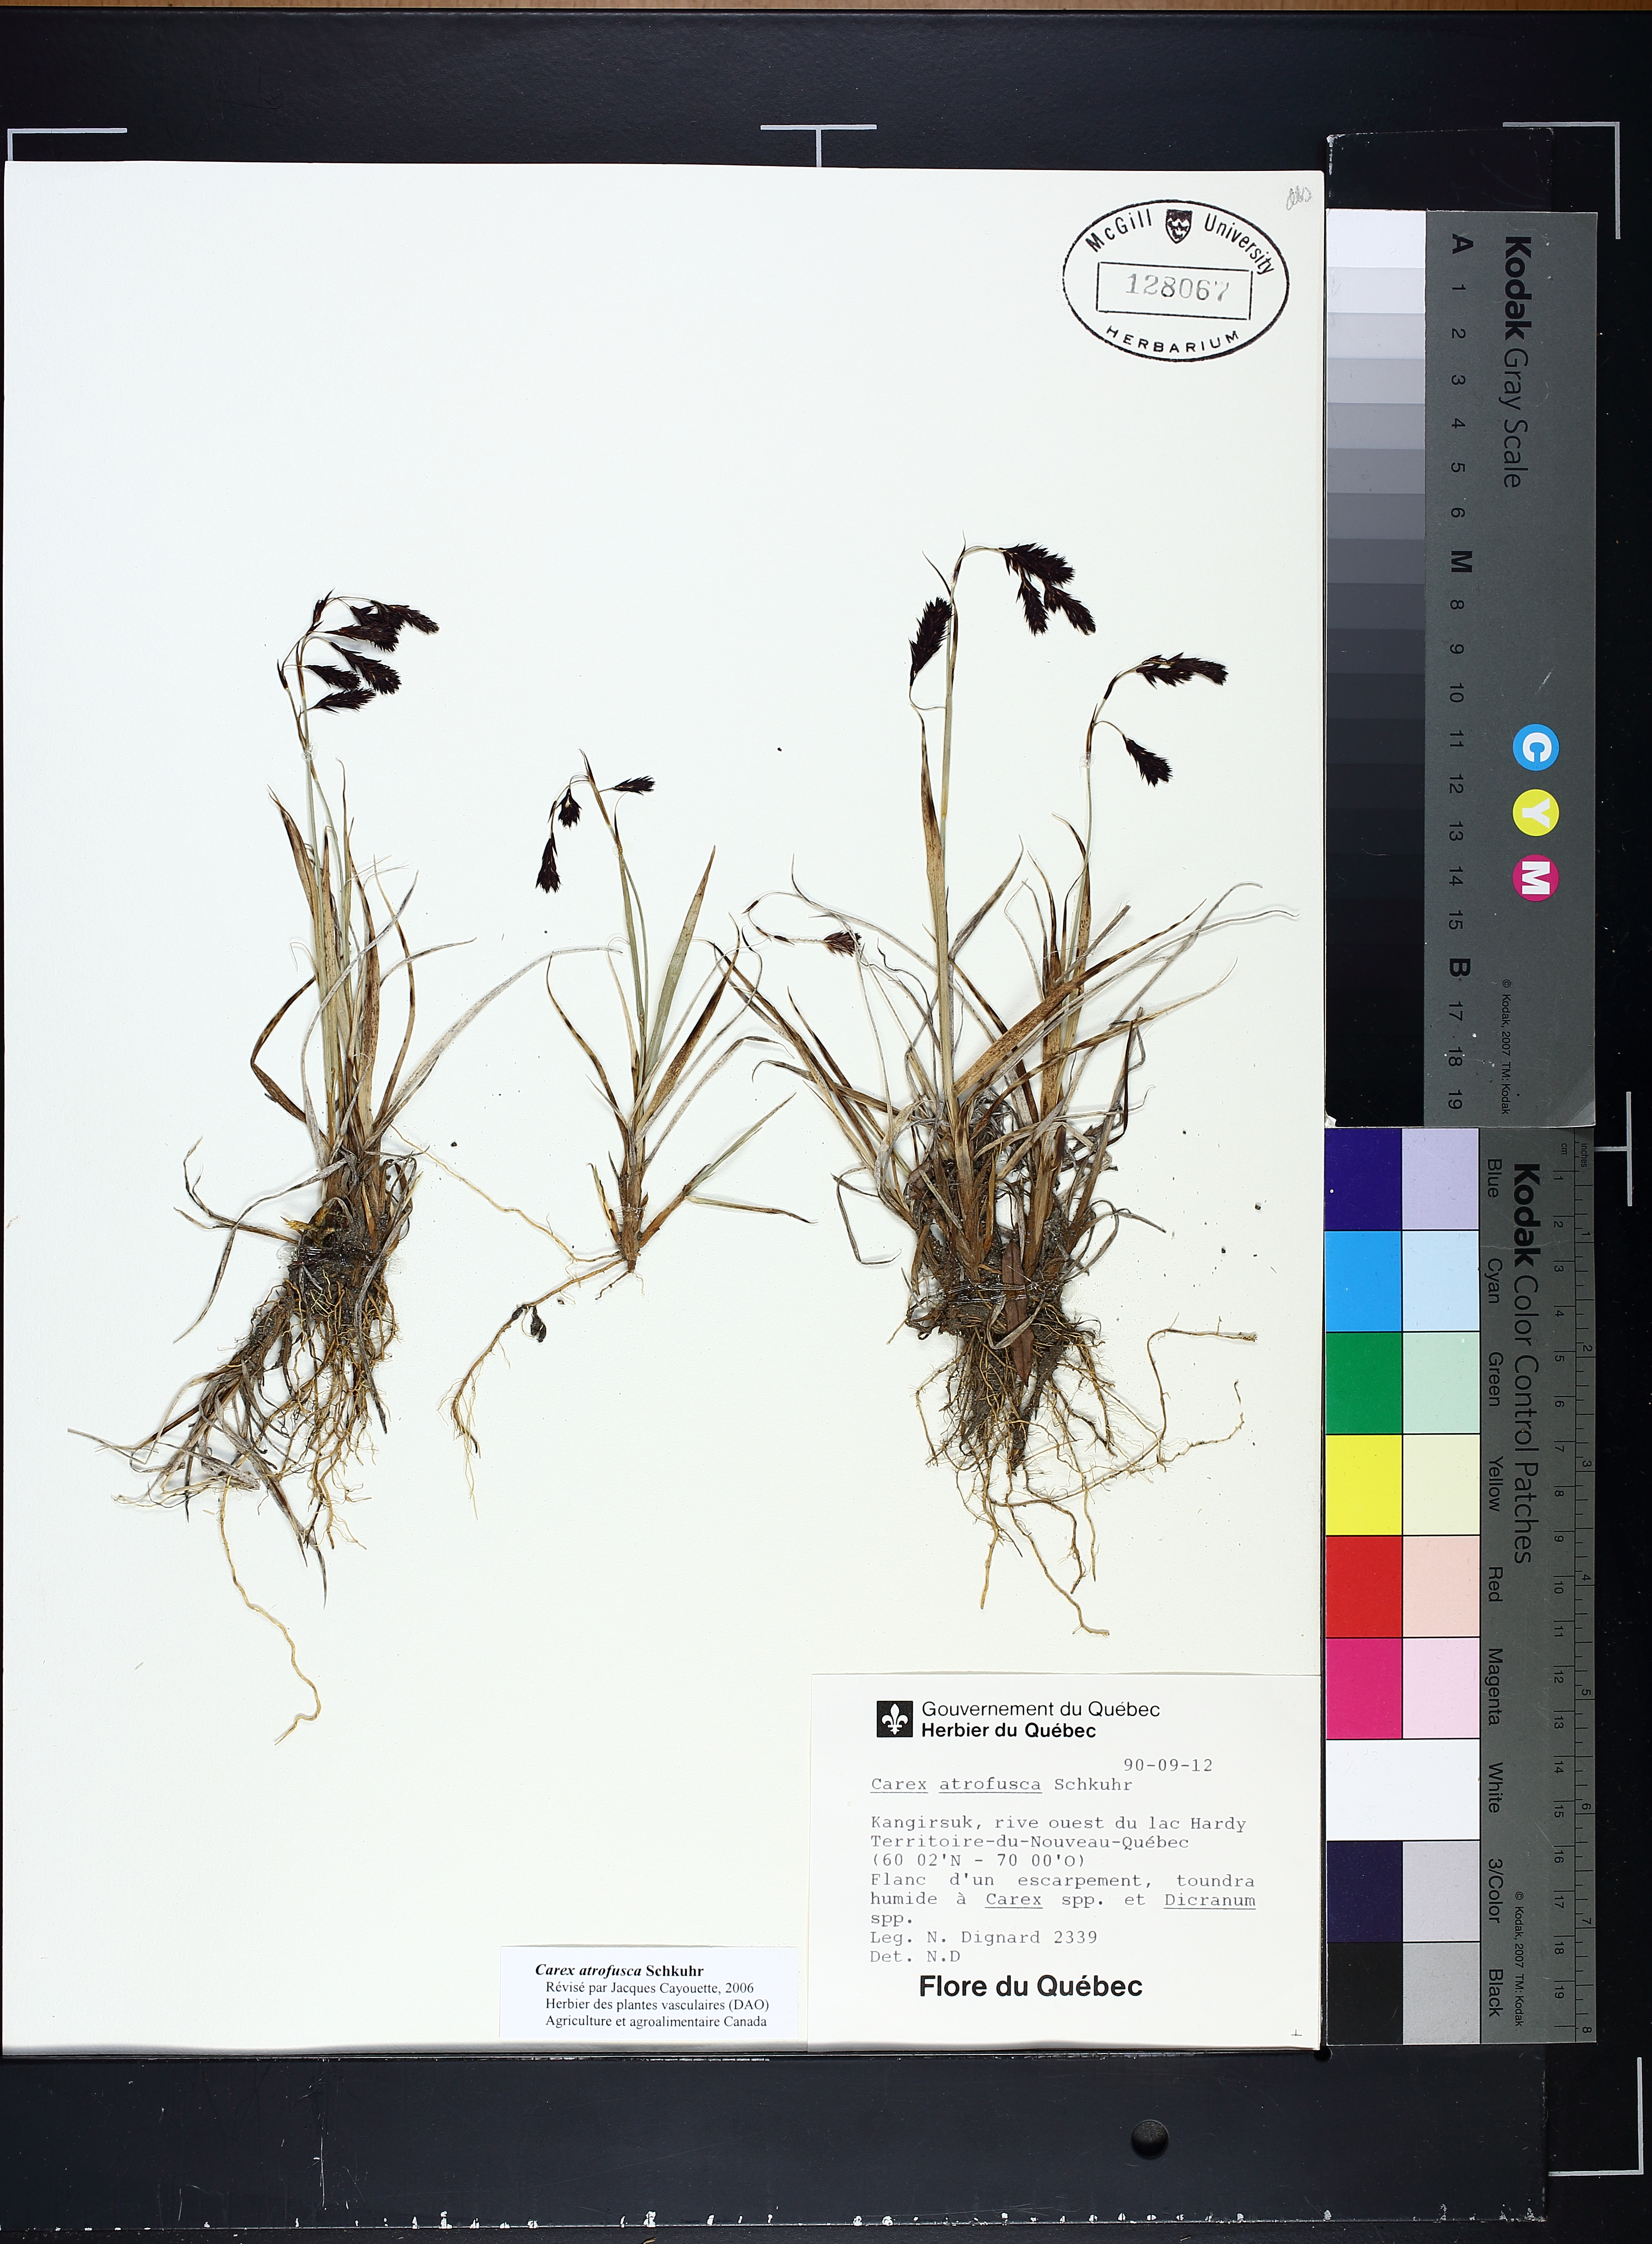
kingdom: Plantae
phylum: Tracheophyta
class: Liliopsida
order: Poales
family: Cyperaceae
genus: Carex
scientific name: Carex atrofusca
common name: Scorched alpine-sedge
